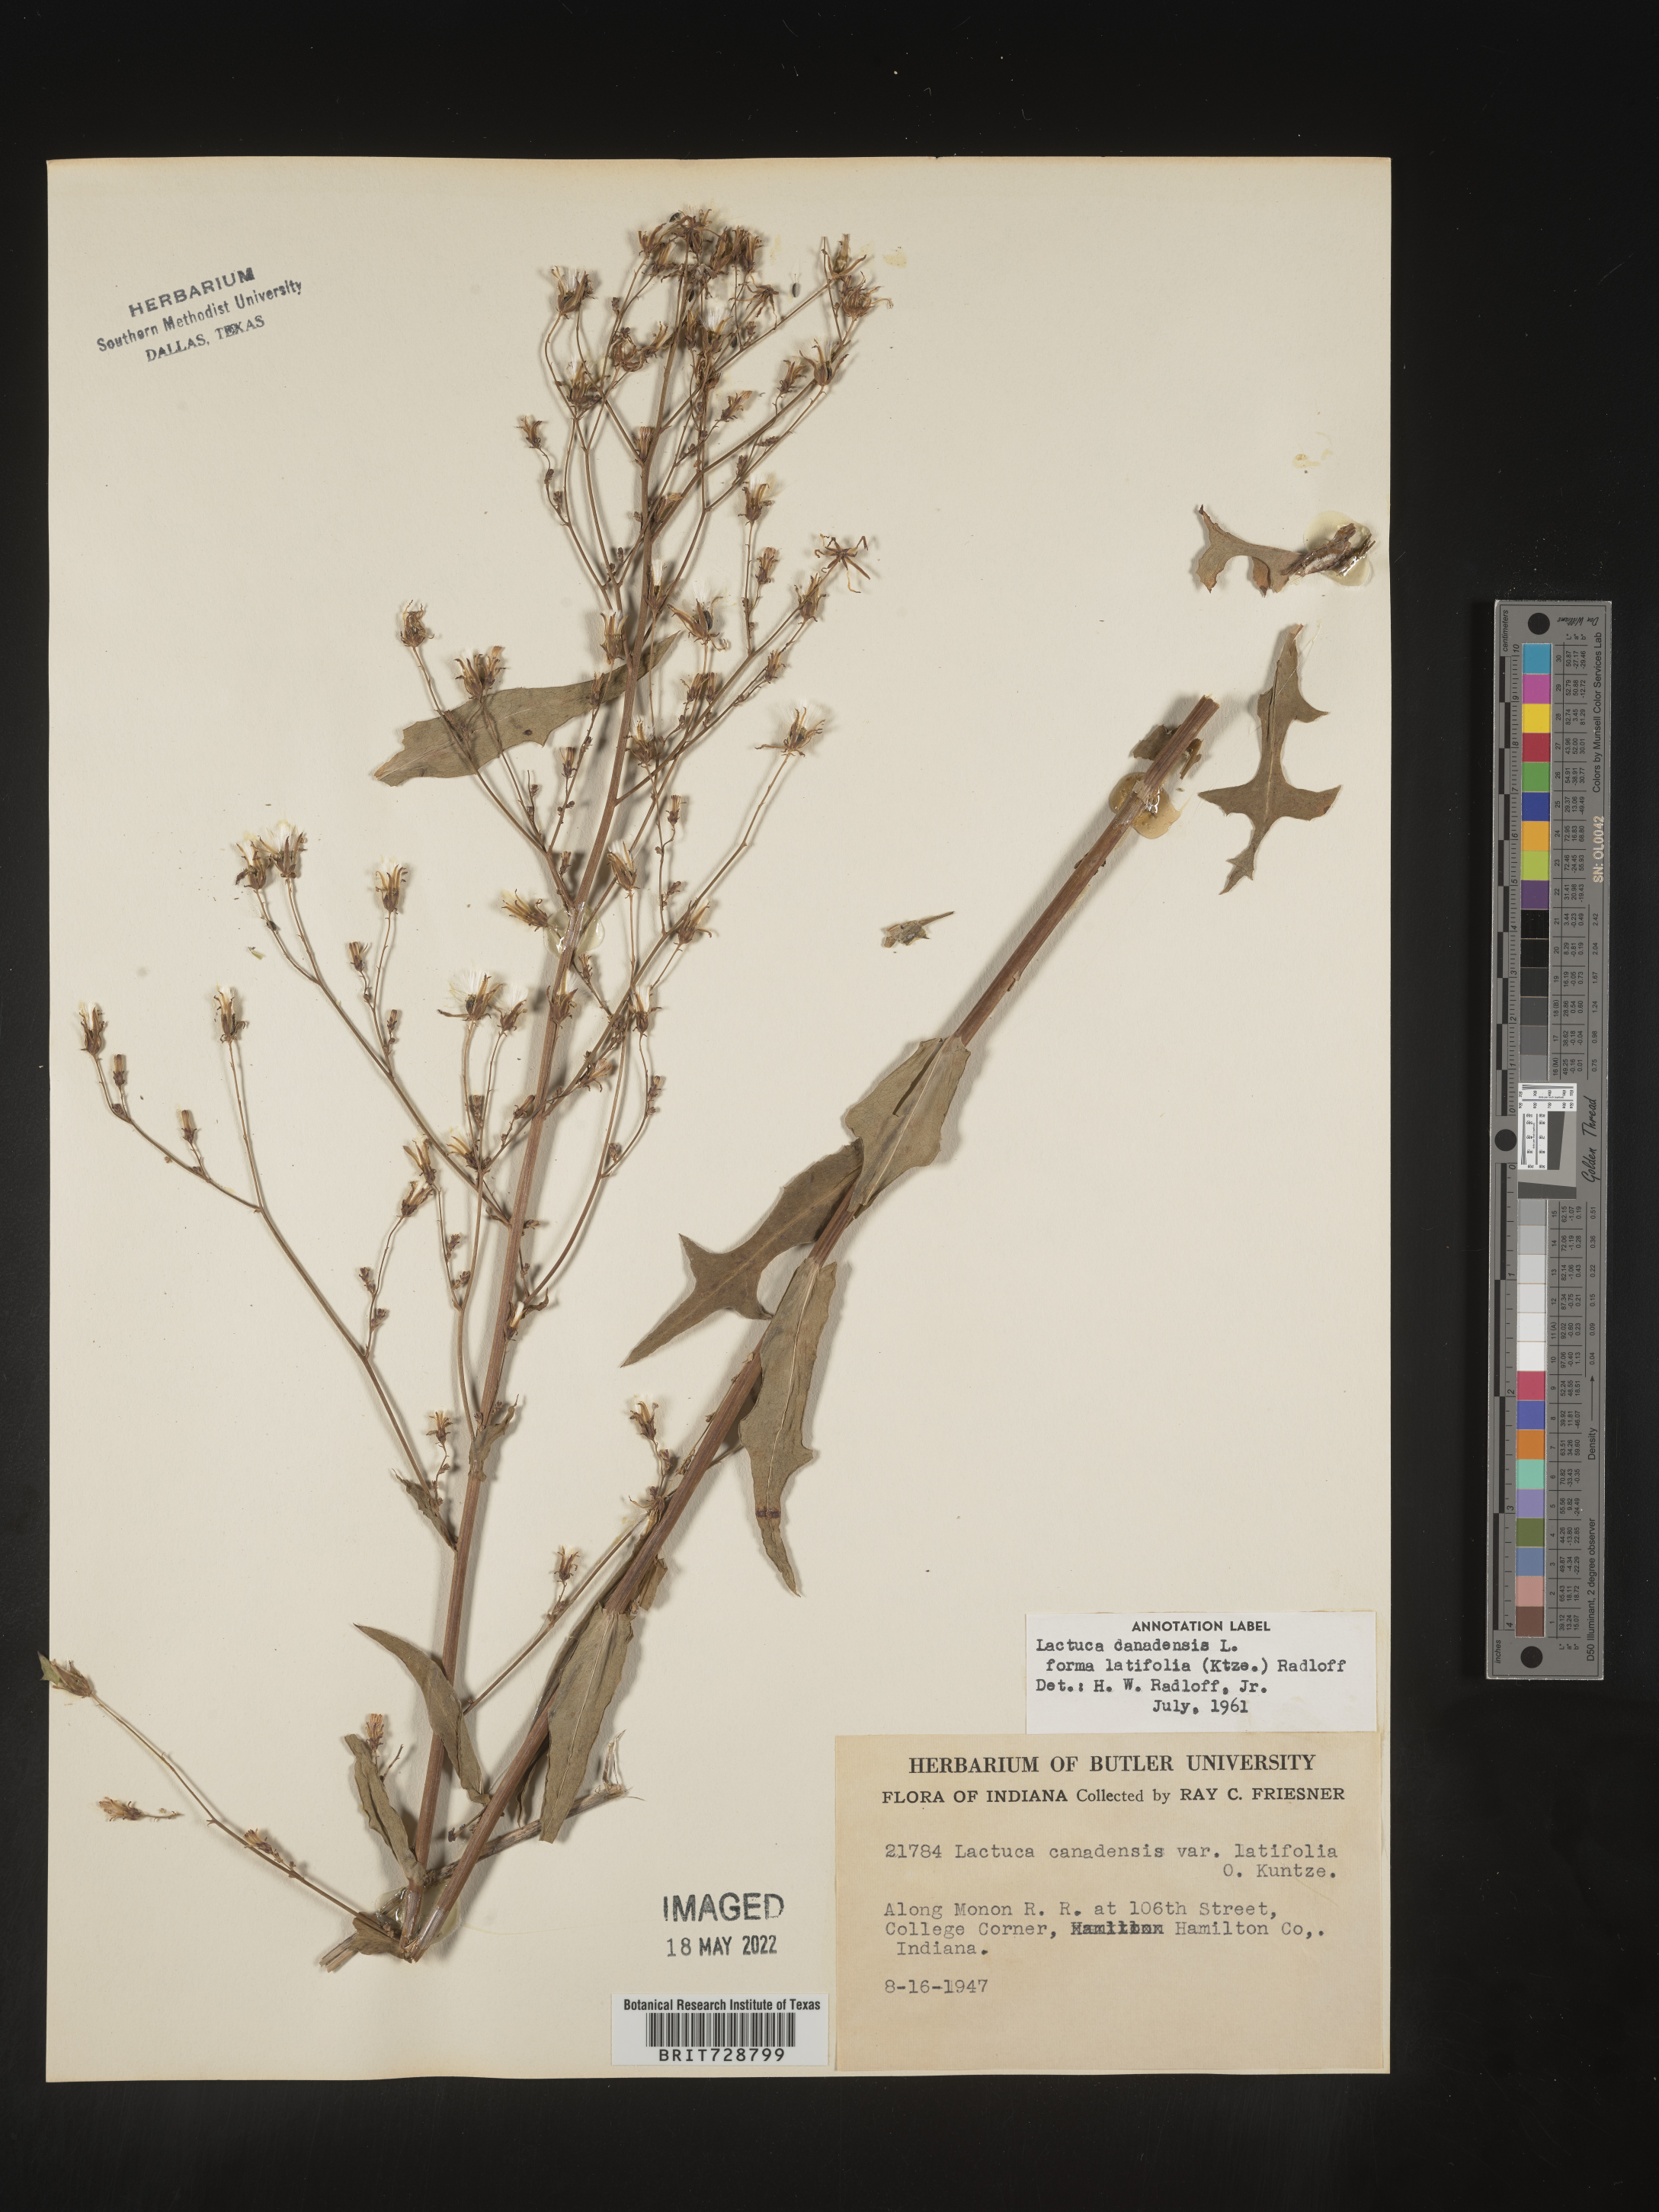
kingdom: Plantae
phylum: Tracheophyta
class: Magnoliopsida
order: Asterales
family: Asteraceae
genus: Lactuca
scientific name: Lactuca canadensis
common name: Canada lettuce
